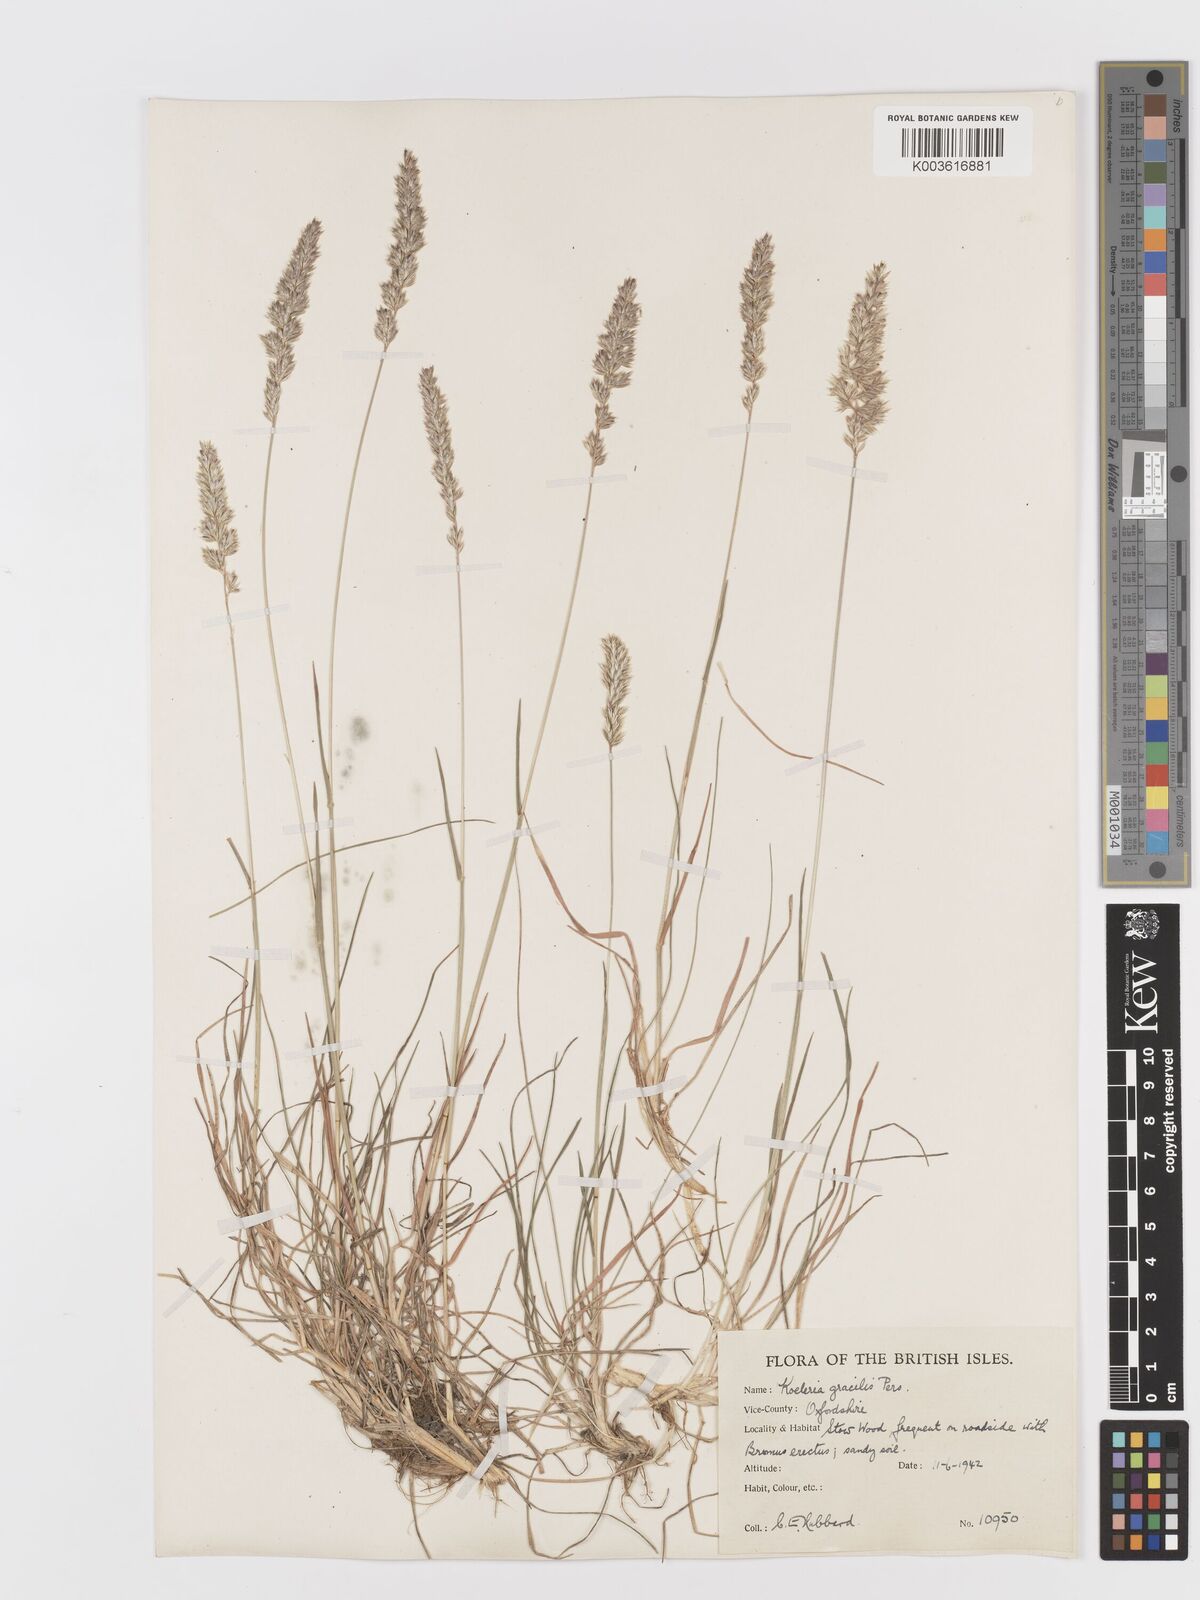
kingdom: Plantae
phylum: Tracheophyta
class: Liliopsida
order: Poales
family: Poaceae
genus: Koeleria
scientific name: Koeleria macrantha
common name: Crested hair-grass
